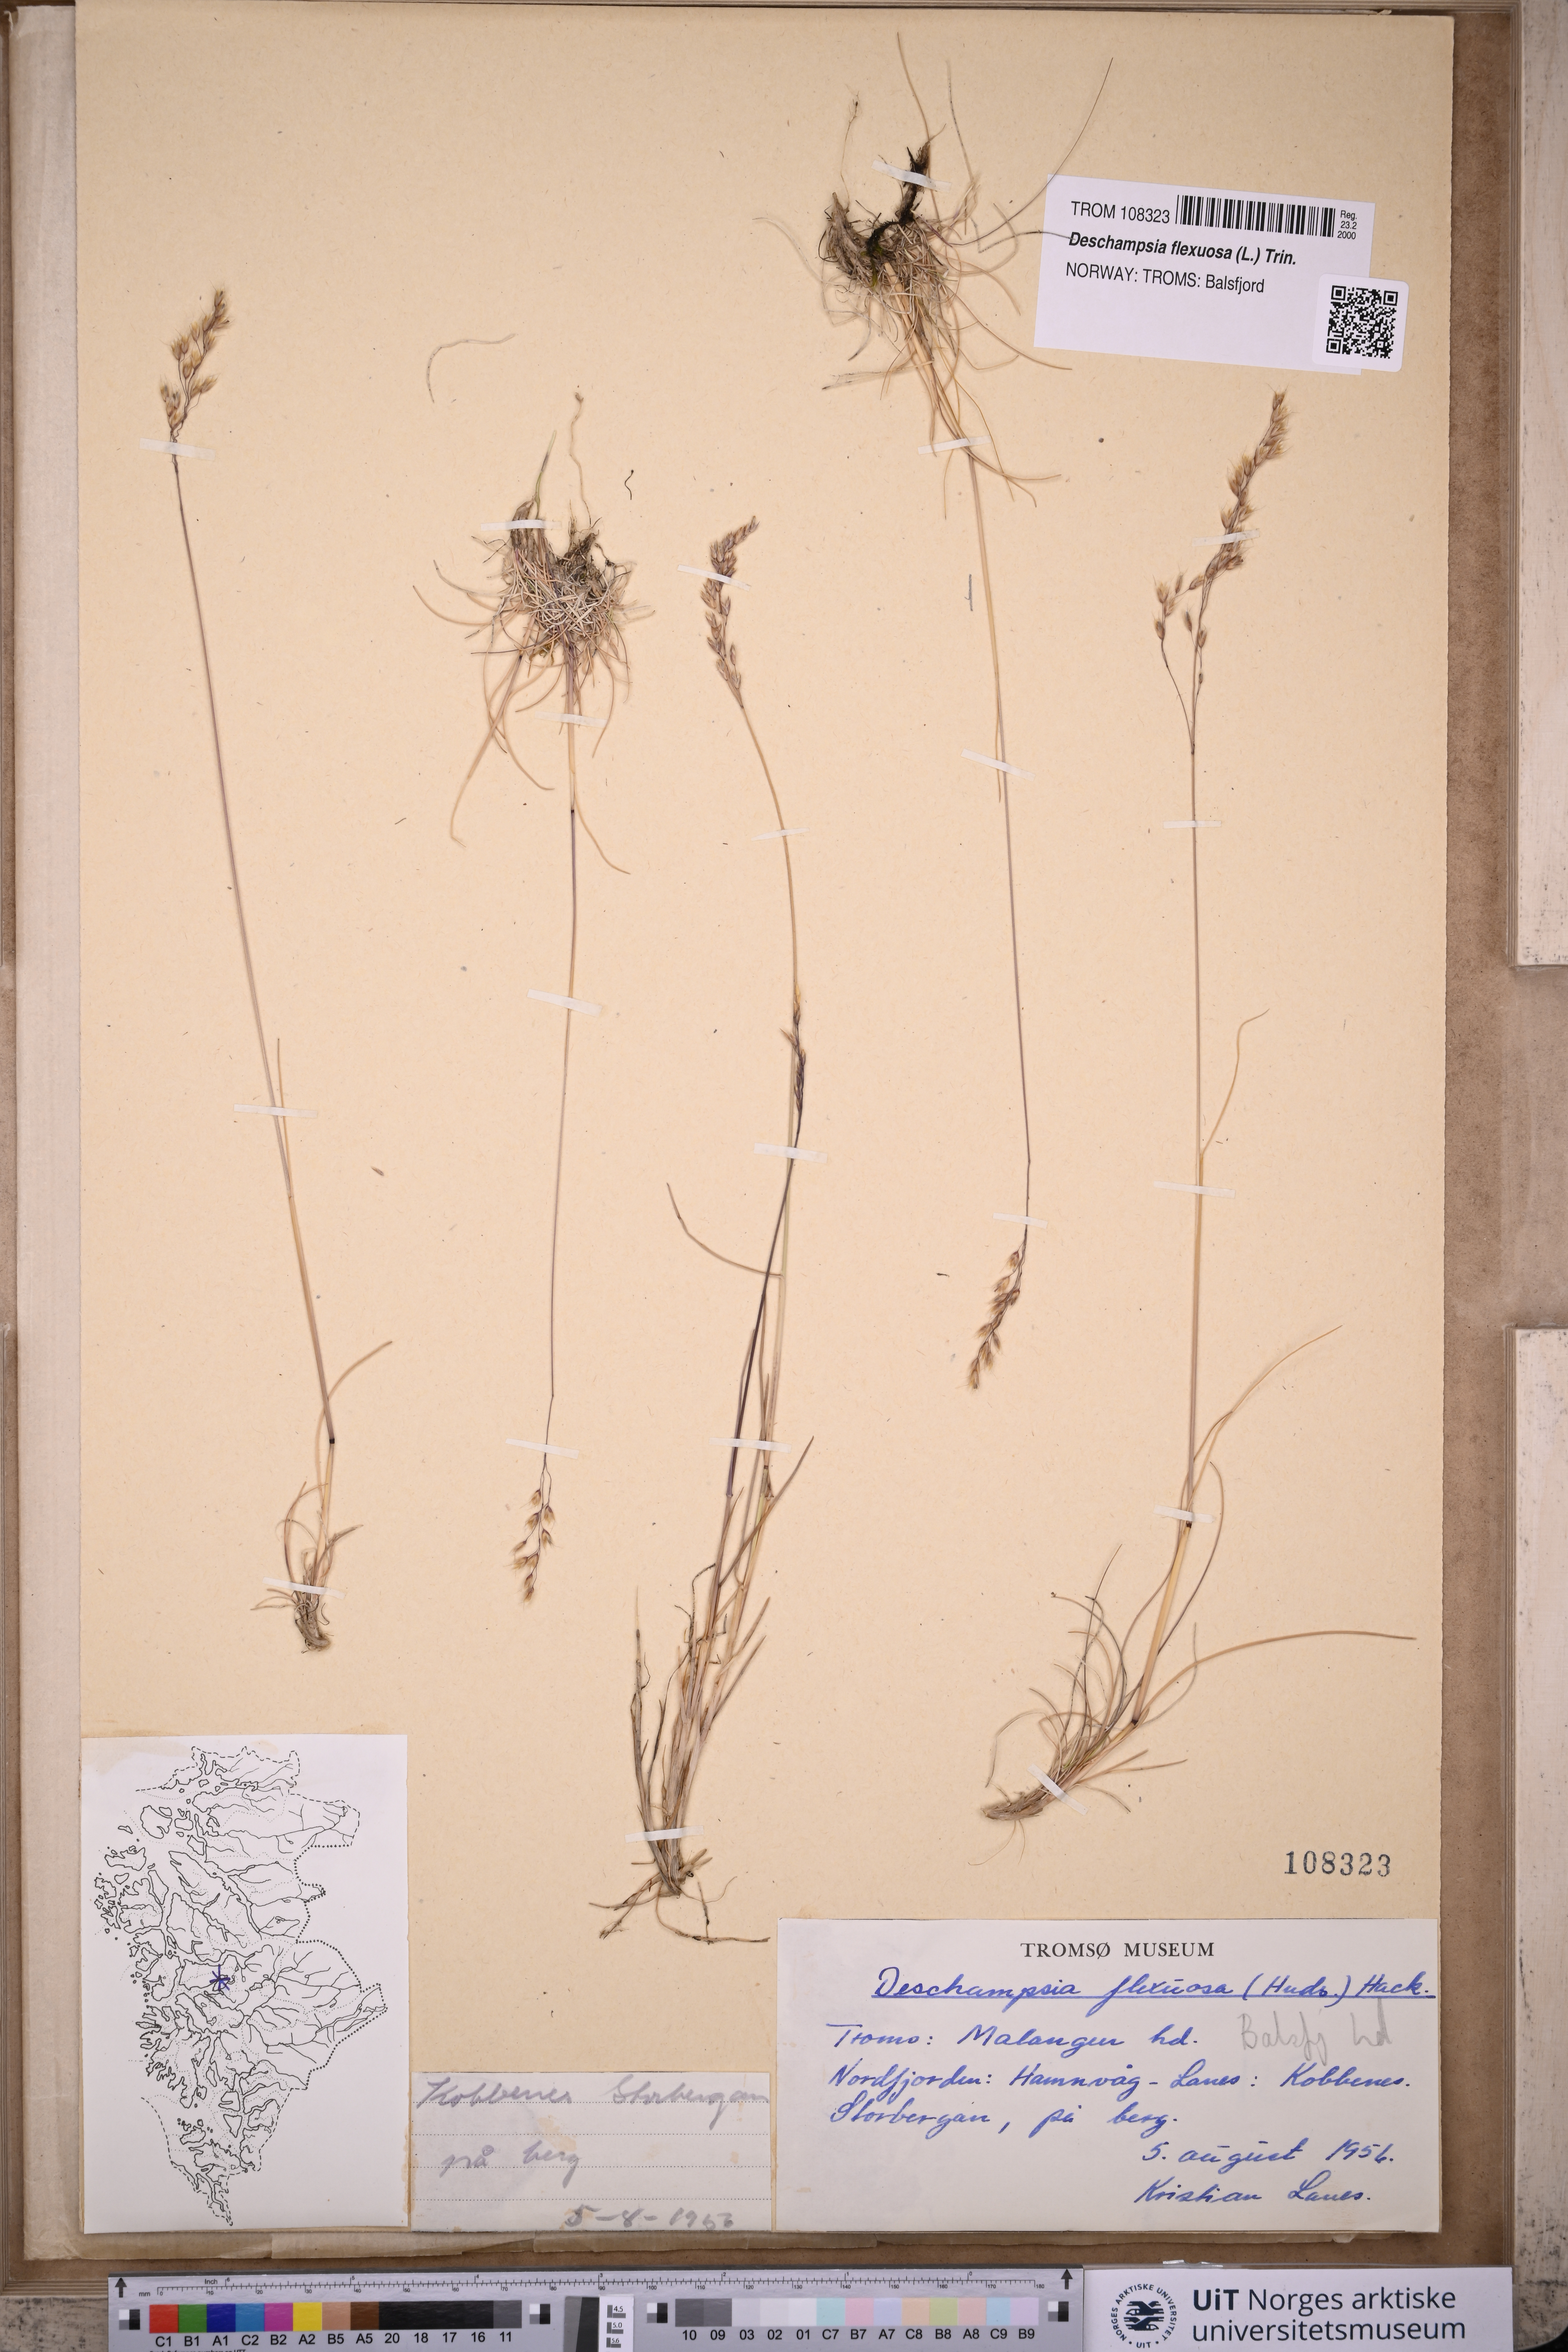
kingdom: Plantae
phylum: Tracheophyta
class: Liliopsida
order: Poales
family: Poaceae
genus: Avenella
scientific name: Avenella flexuosa
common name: Wavy hairgrass
